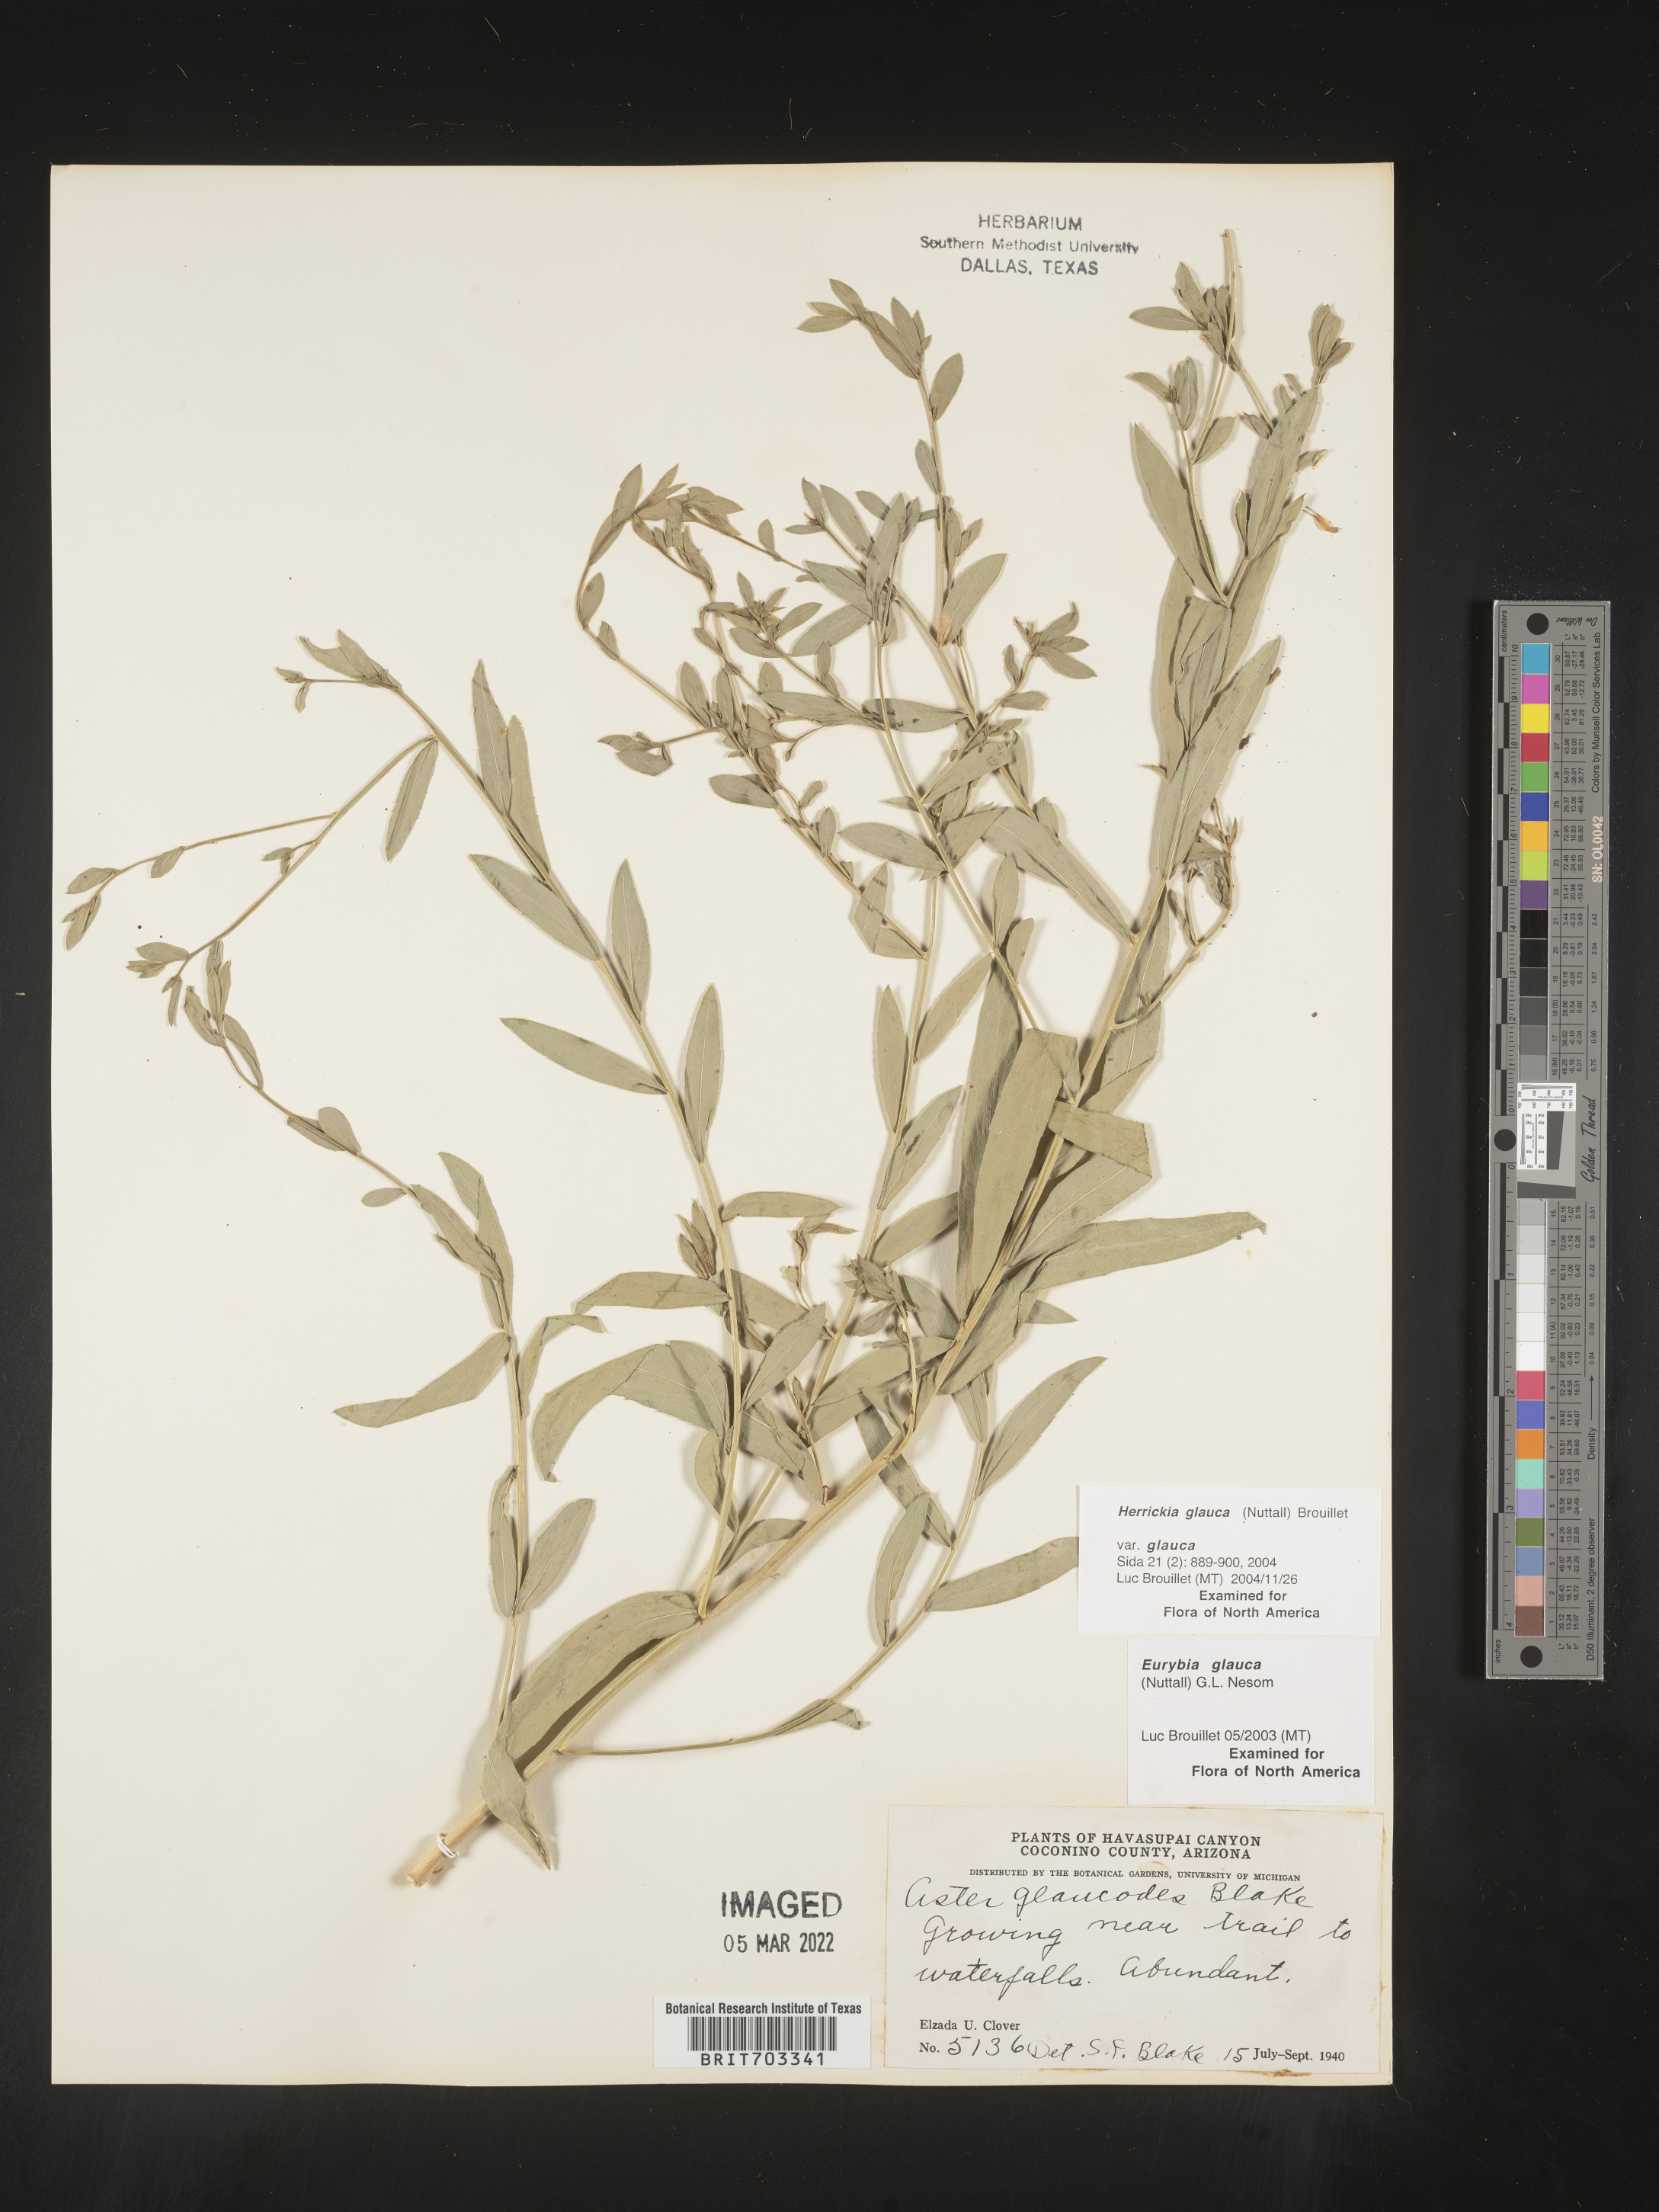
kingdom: Plantae
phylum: Tracheophyta
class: Magnoliopsida
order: Asterales
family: Asteraceae
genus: Eurybia
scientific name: Eurybia glauca
